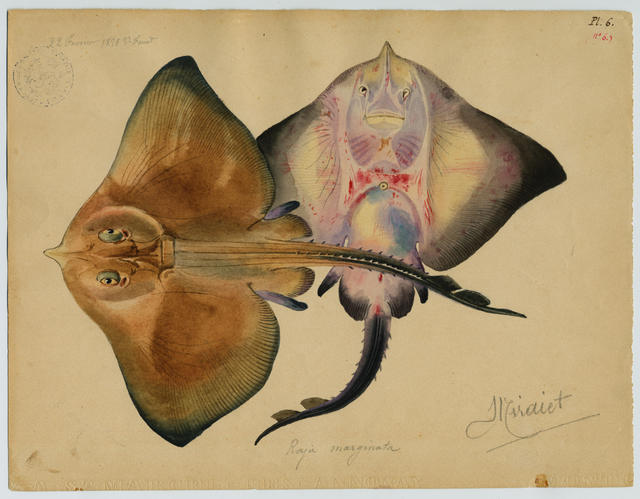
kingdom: Animalia
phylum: Chordata
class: Elasmobranchii
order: Rajiformes
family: Rajidae
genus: Rostroraja
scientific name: Rostroraja alba
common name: White skate
